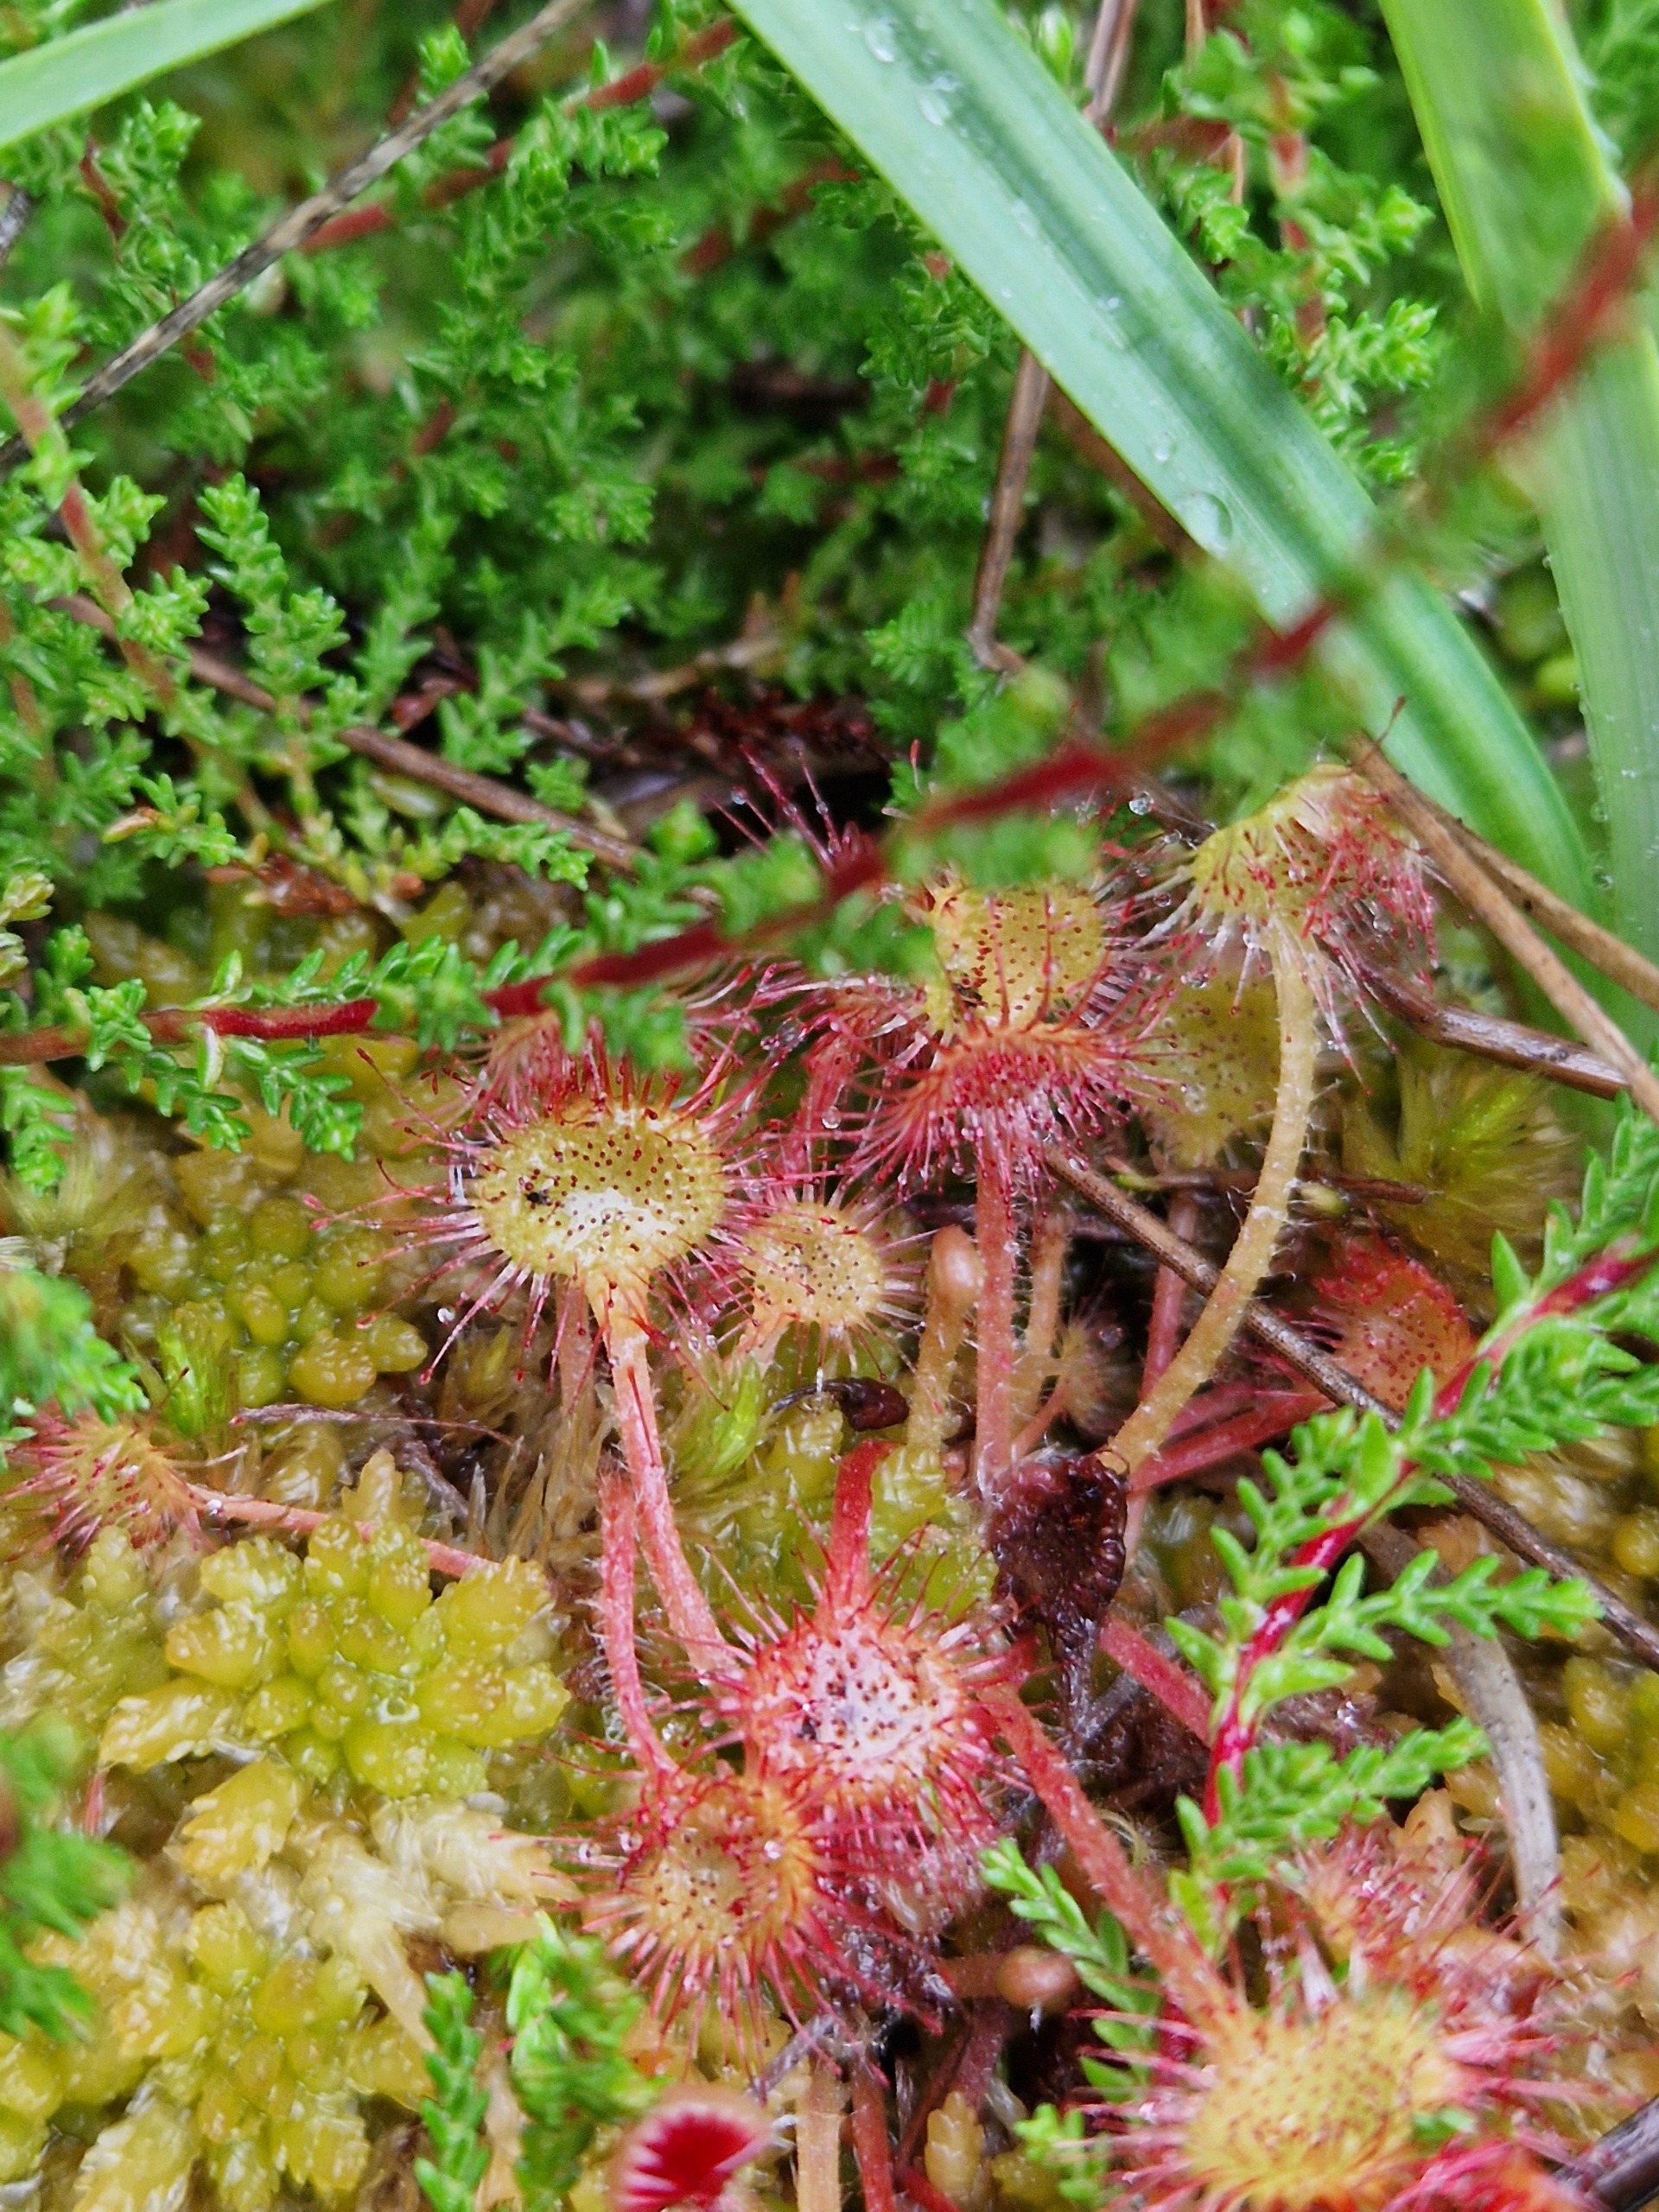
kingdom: Plantae
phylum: Tracheophyta
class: Magnoliopsida
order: Caryophyllales
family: Droseraceae
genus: Drosera
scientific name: Drosera rotundifolia
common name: Rundbladet soldug
